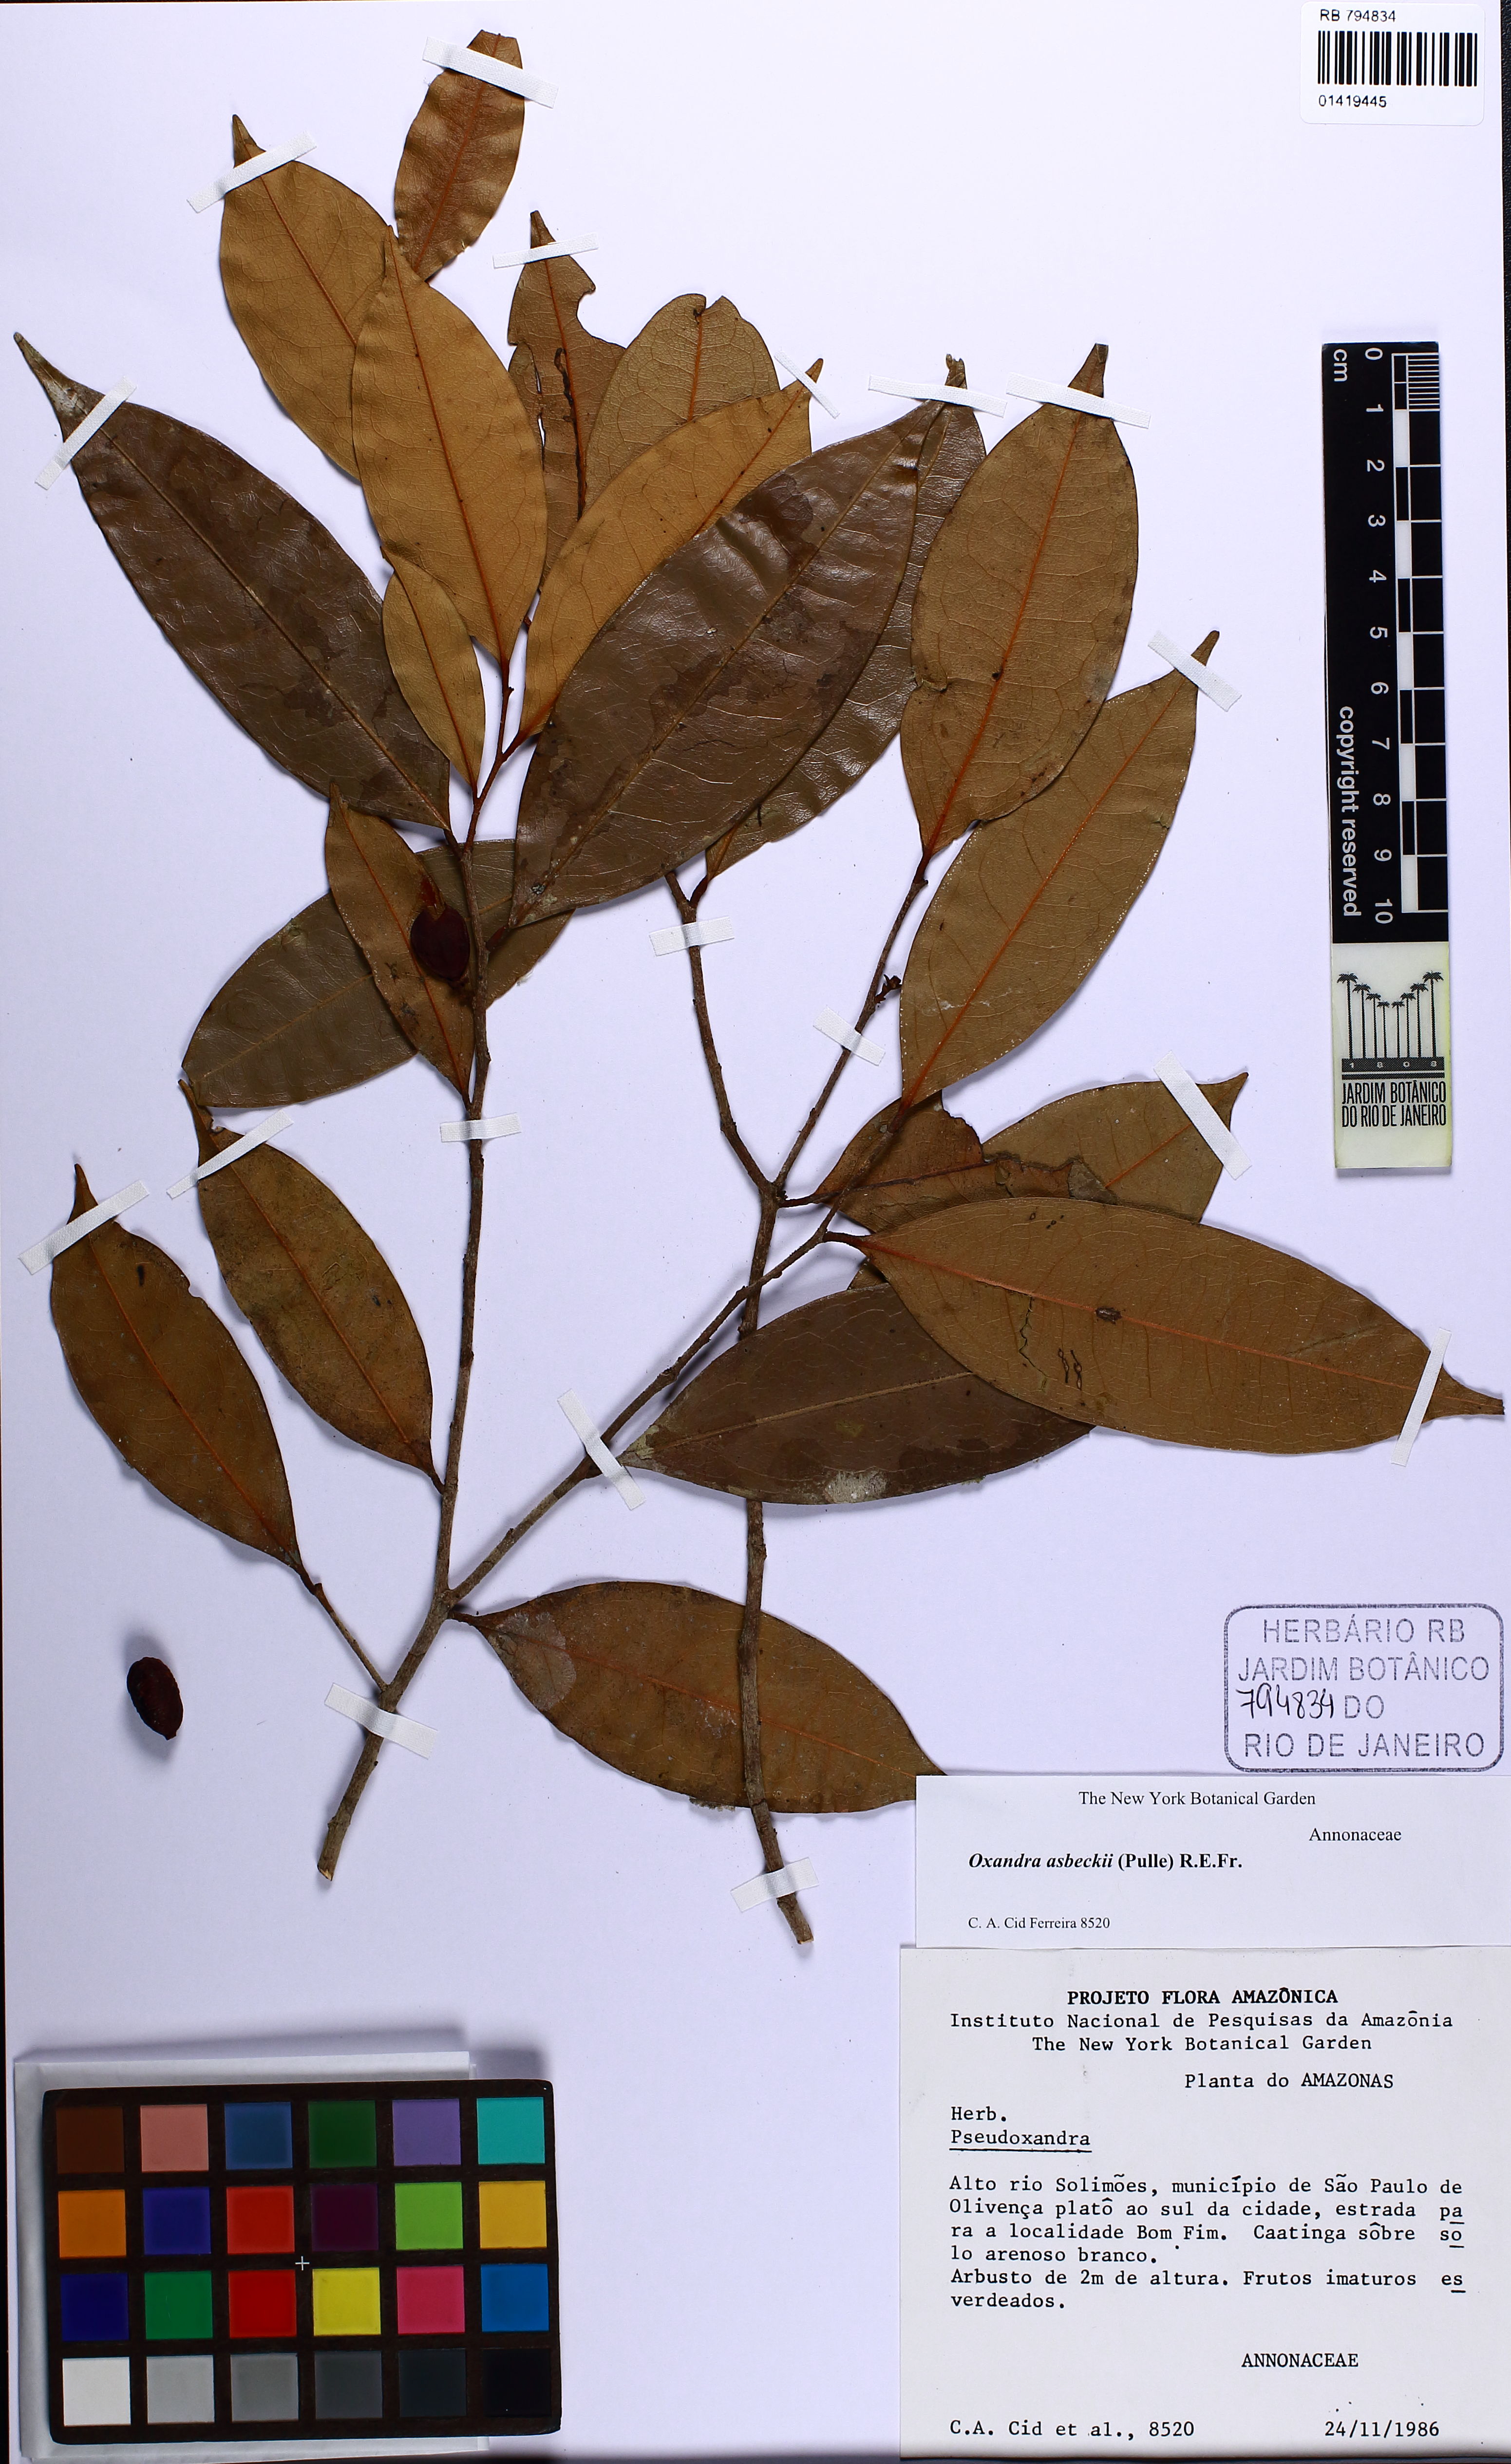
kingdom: Plantae
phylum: Tracheophyta
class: Magnoliopsida
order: Magnoliales
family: Annonaceae
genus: Oxandra
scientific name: Oxandra asbeckii
